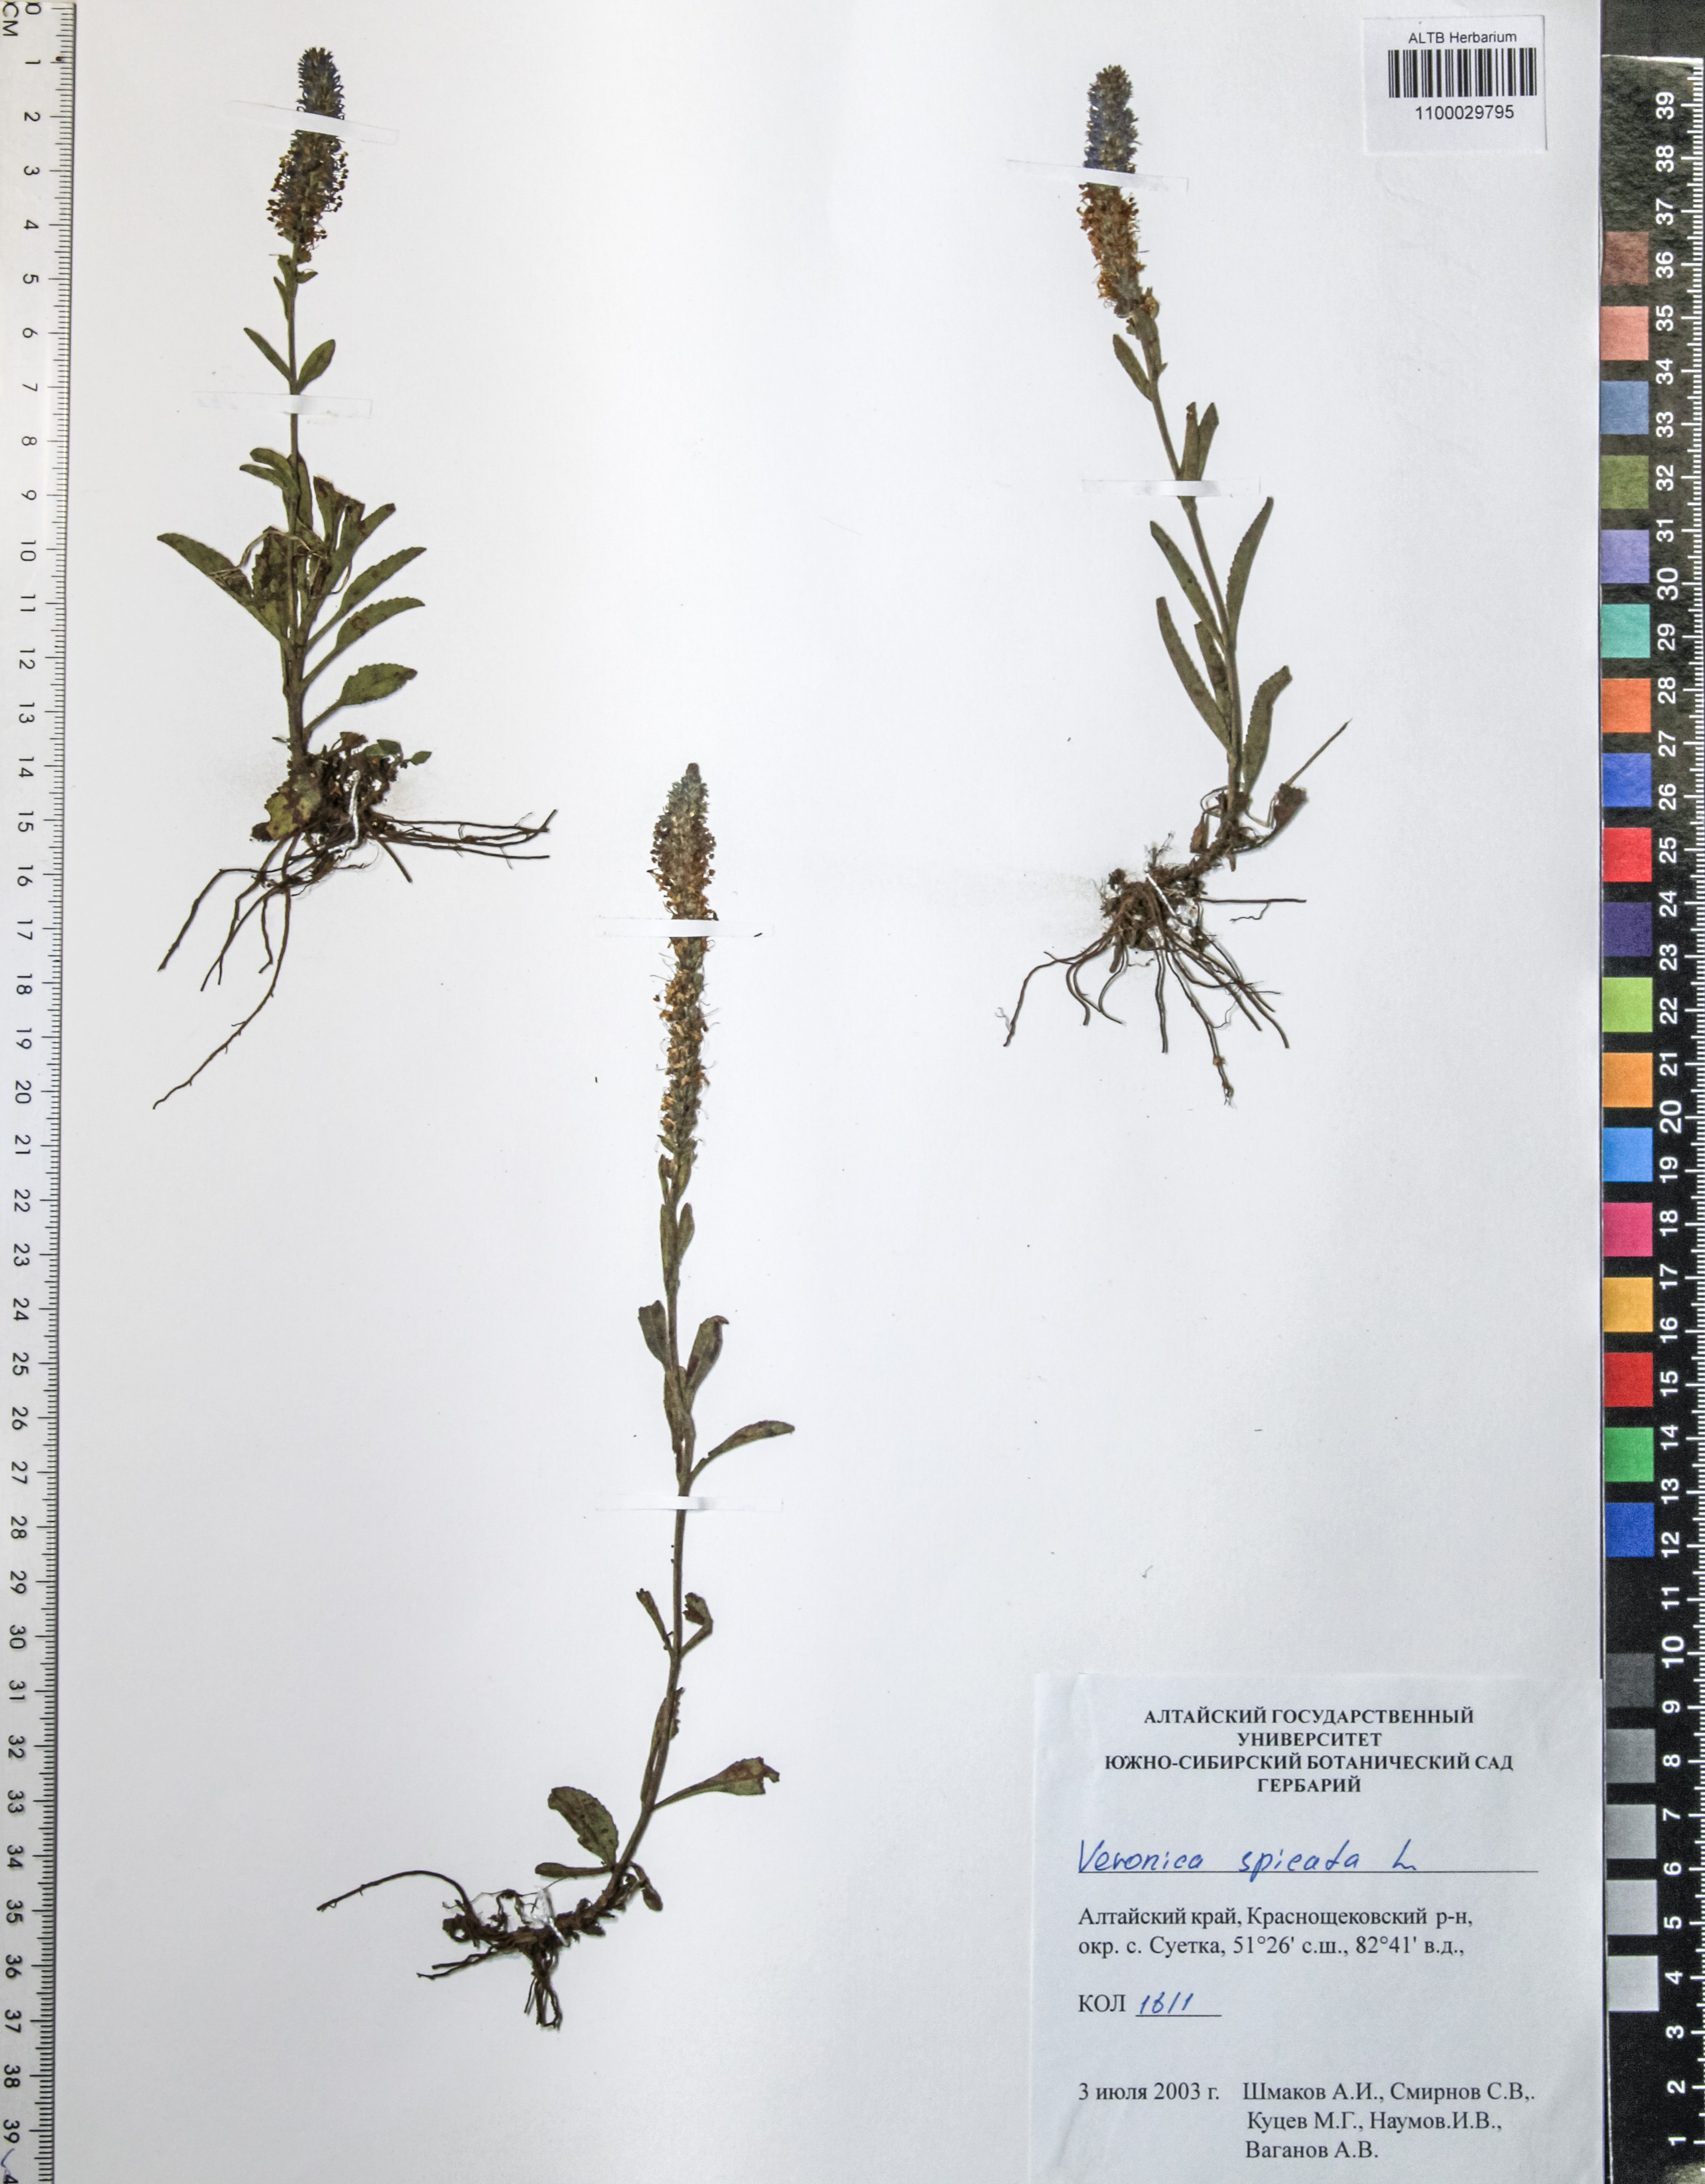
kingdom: Plantae
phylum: Tracheophyta
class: Magnoliopsida
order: Lamiales
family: Plantaginaceae
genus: Veronica
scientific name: Veronica spicata
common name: Spiked speedwell
